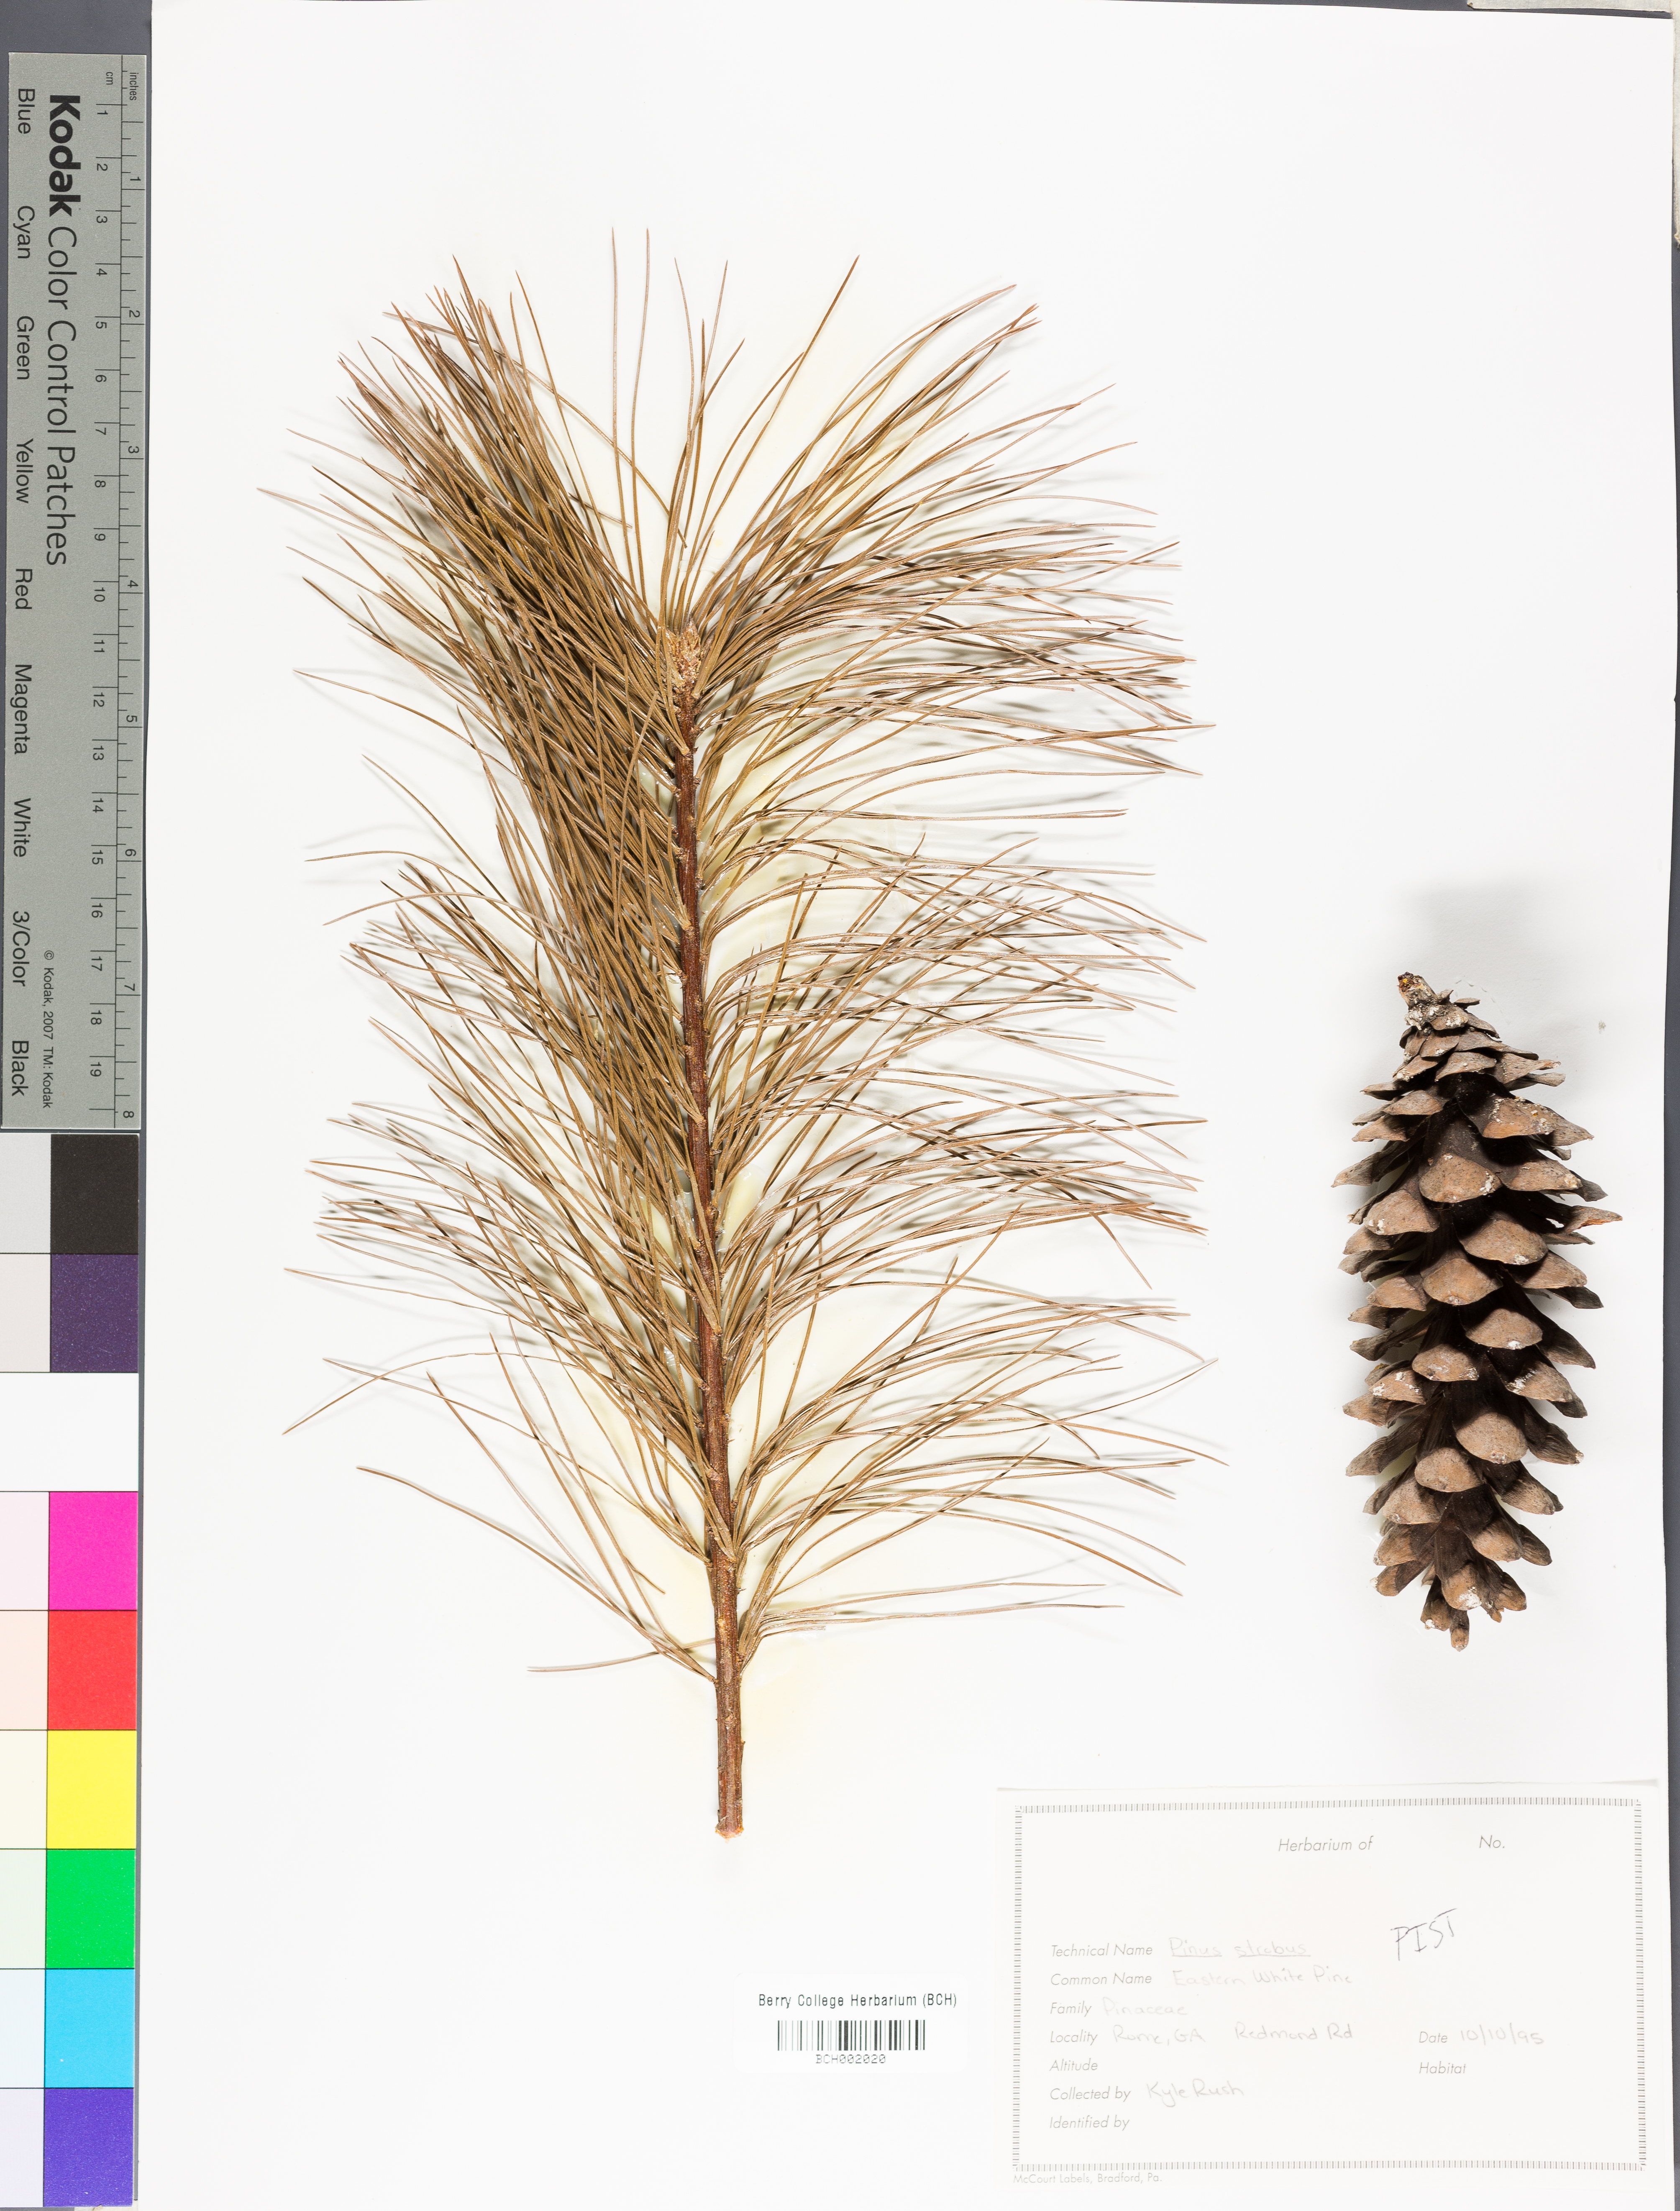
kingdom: Plantae
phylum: Tracheophyta
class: Pinopsida
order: Pinales
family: Pinaceae
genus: Pinus
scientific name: Pinus strobus
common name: Weymouth pine
